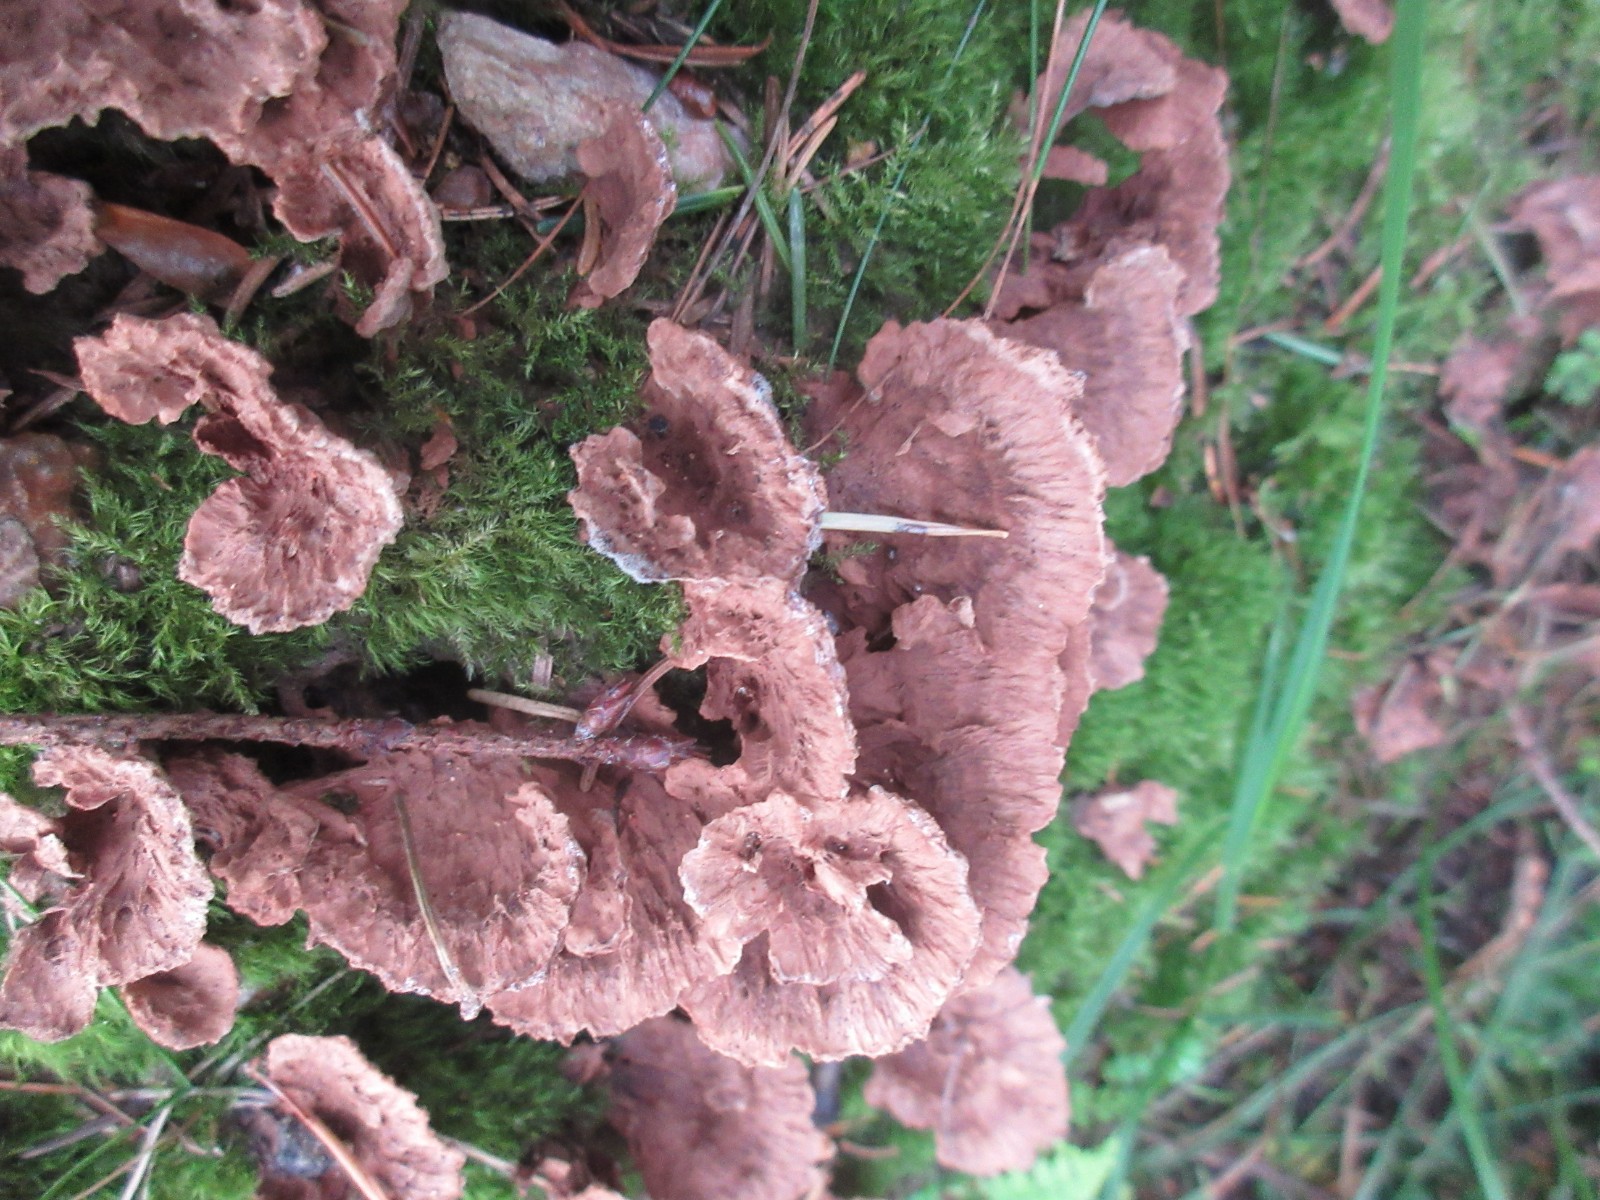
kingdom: Fungi
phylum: Basidiomycota
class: Agaricomycetes
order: Thelephorales
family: Thelephoraceae
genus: Thelephora
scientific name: Thelephora terrestris
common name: fliget frynsesvamp
